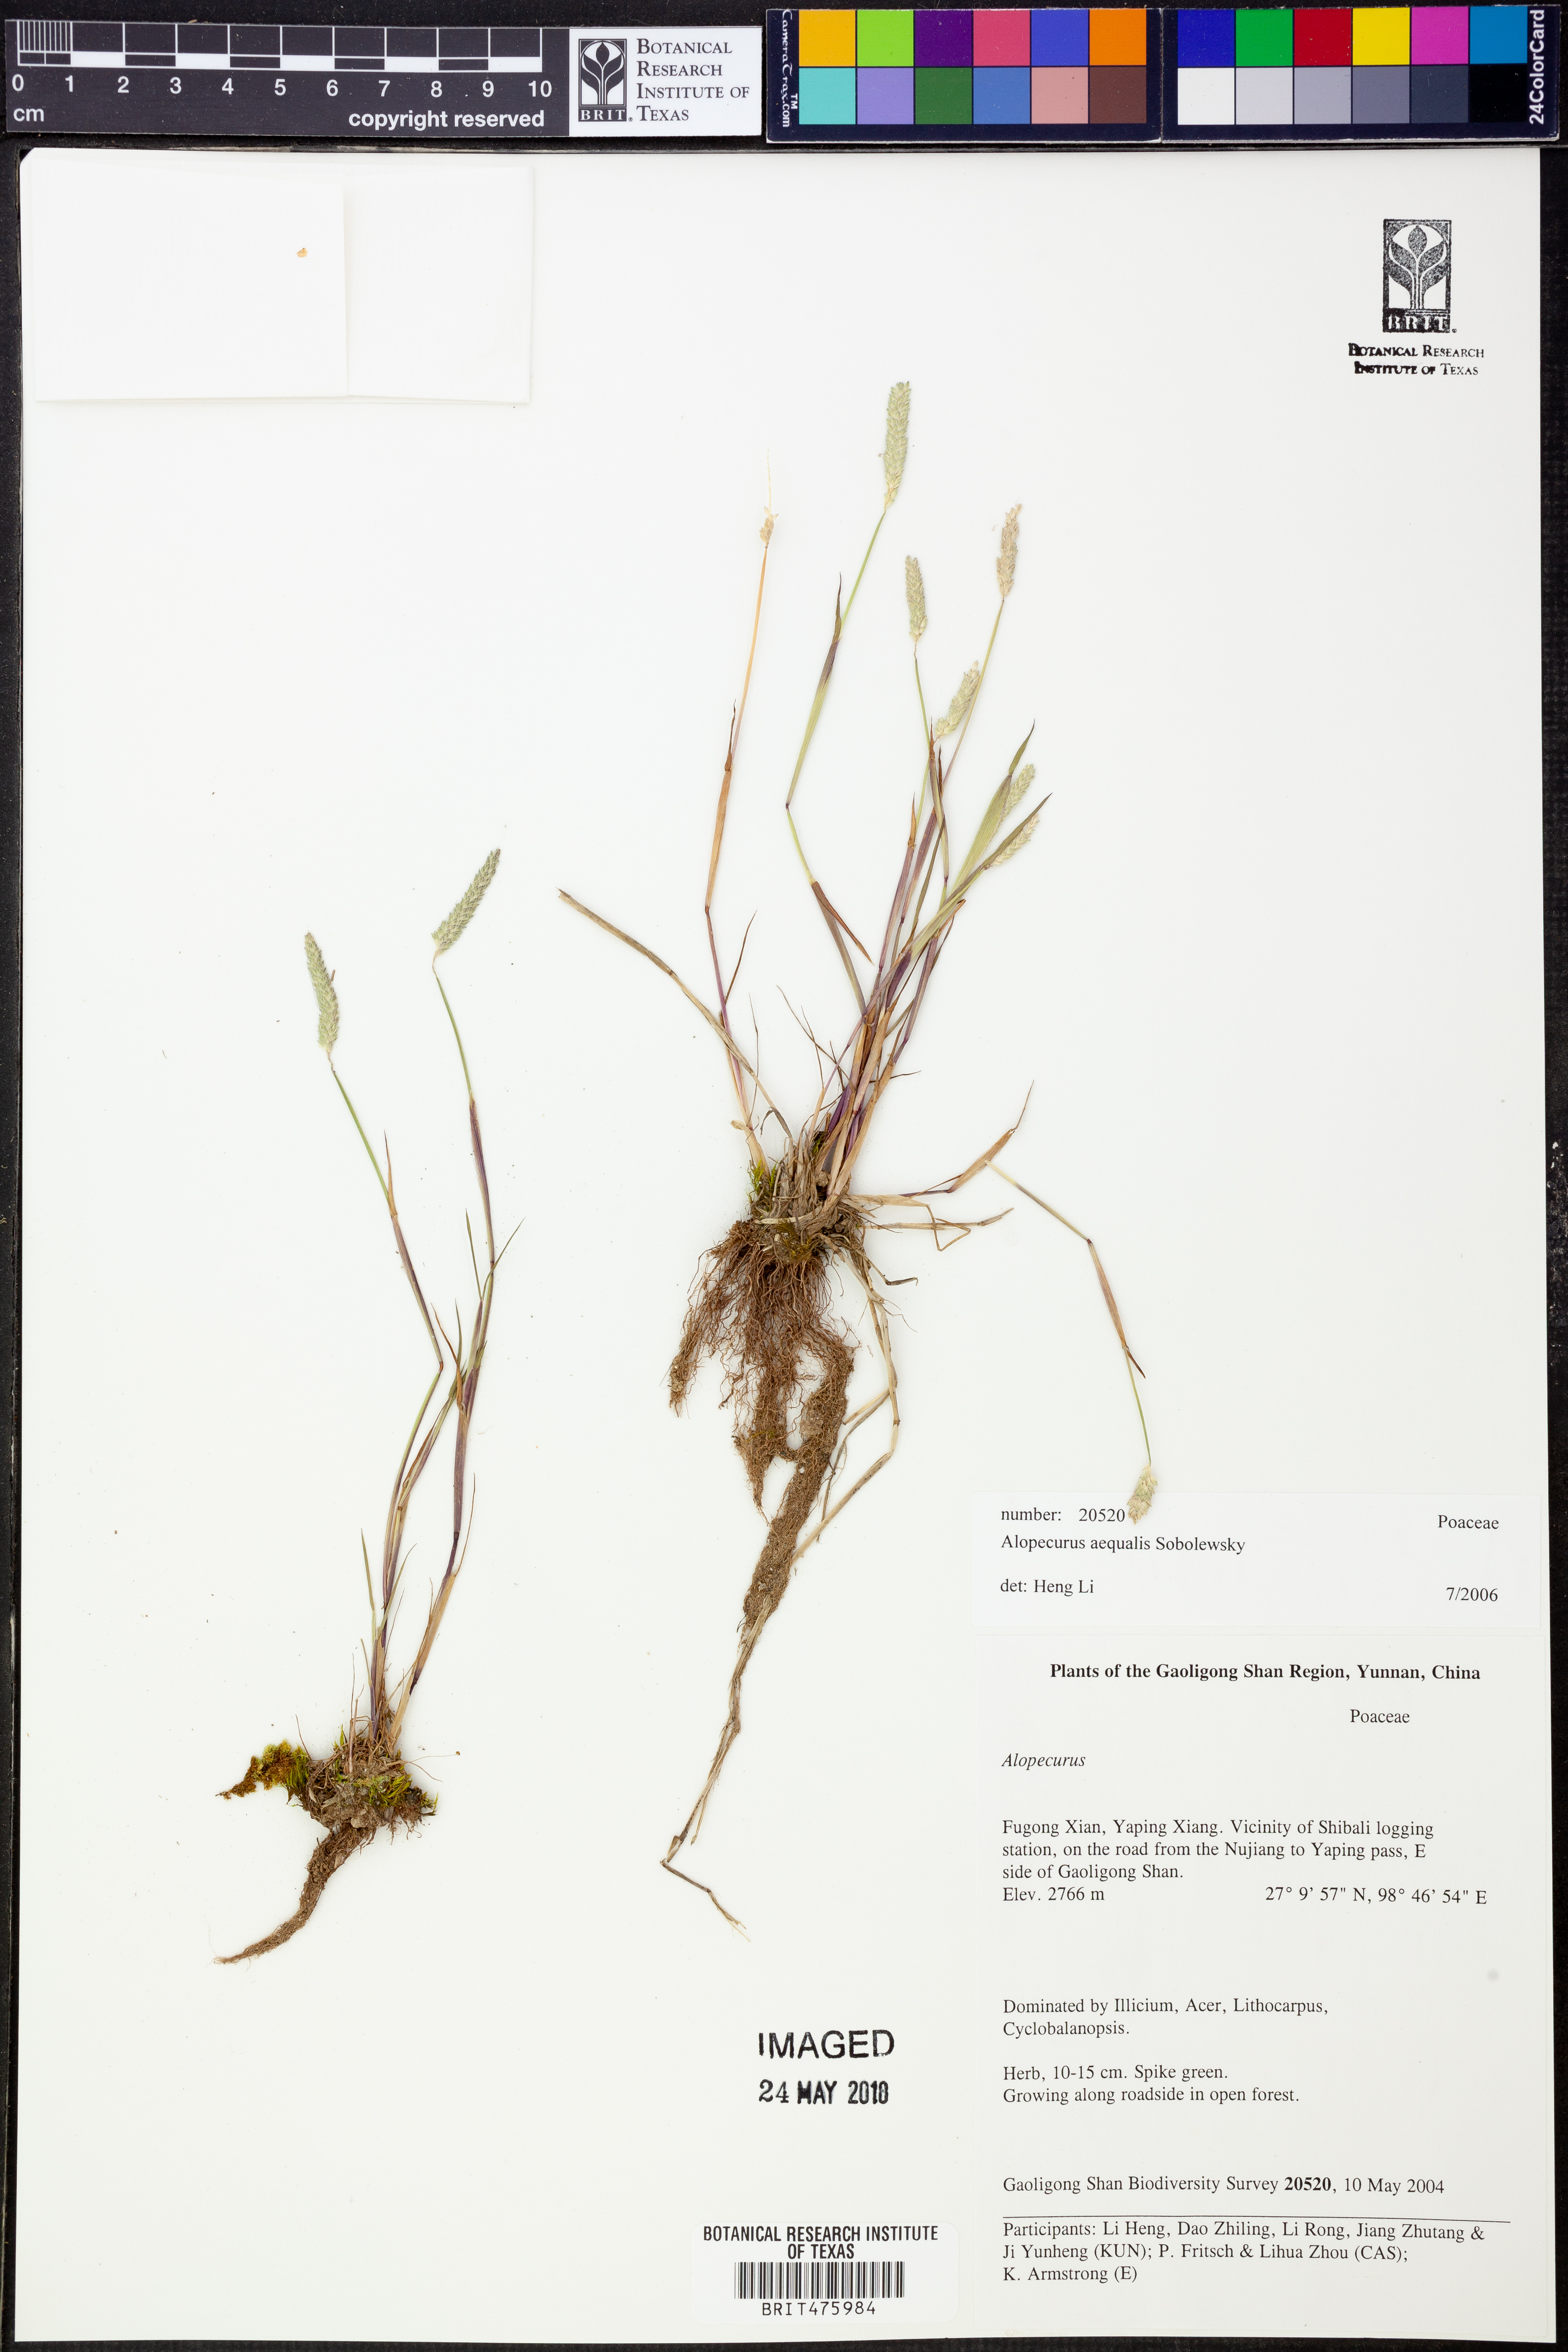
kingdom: Plantae
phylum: Tracheophyta
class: Liliopsida
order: Poales
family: Poaceae
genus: Alopecurus
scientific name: Alopecurus aequalis
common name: Orange foxtail
